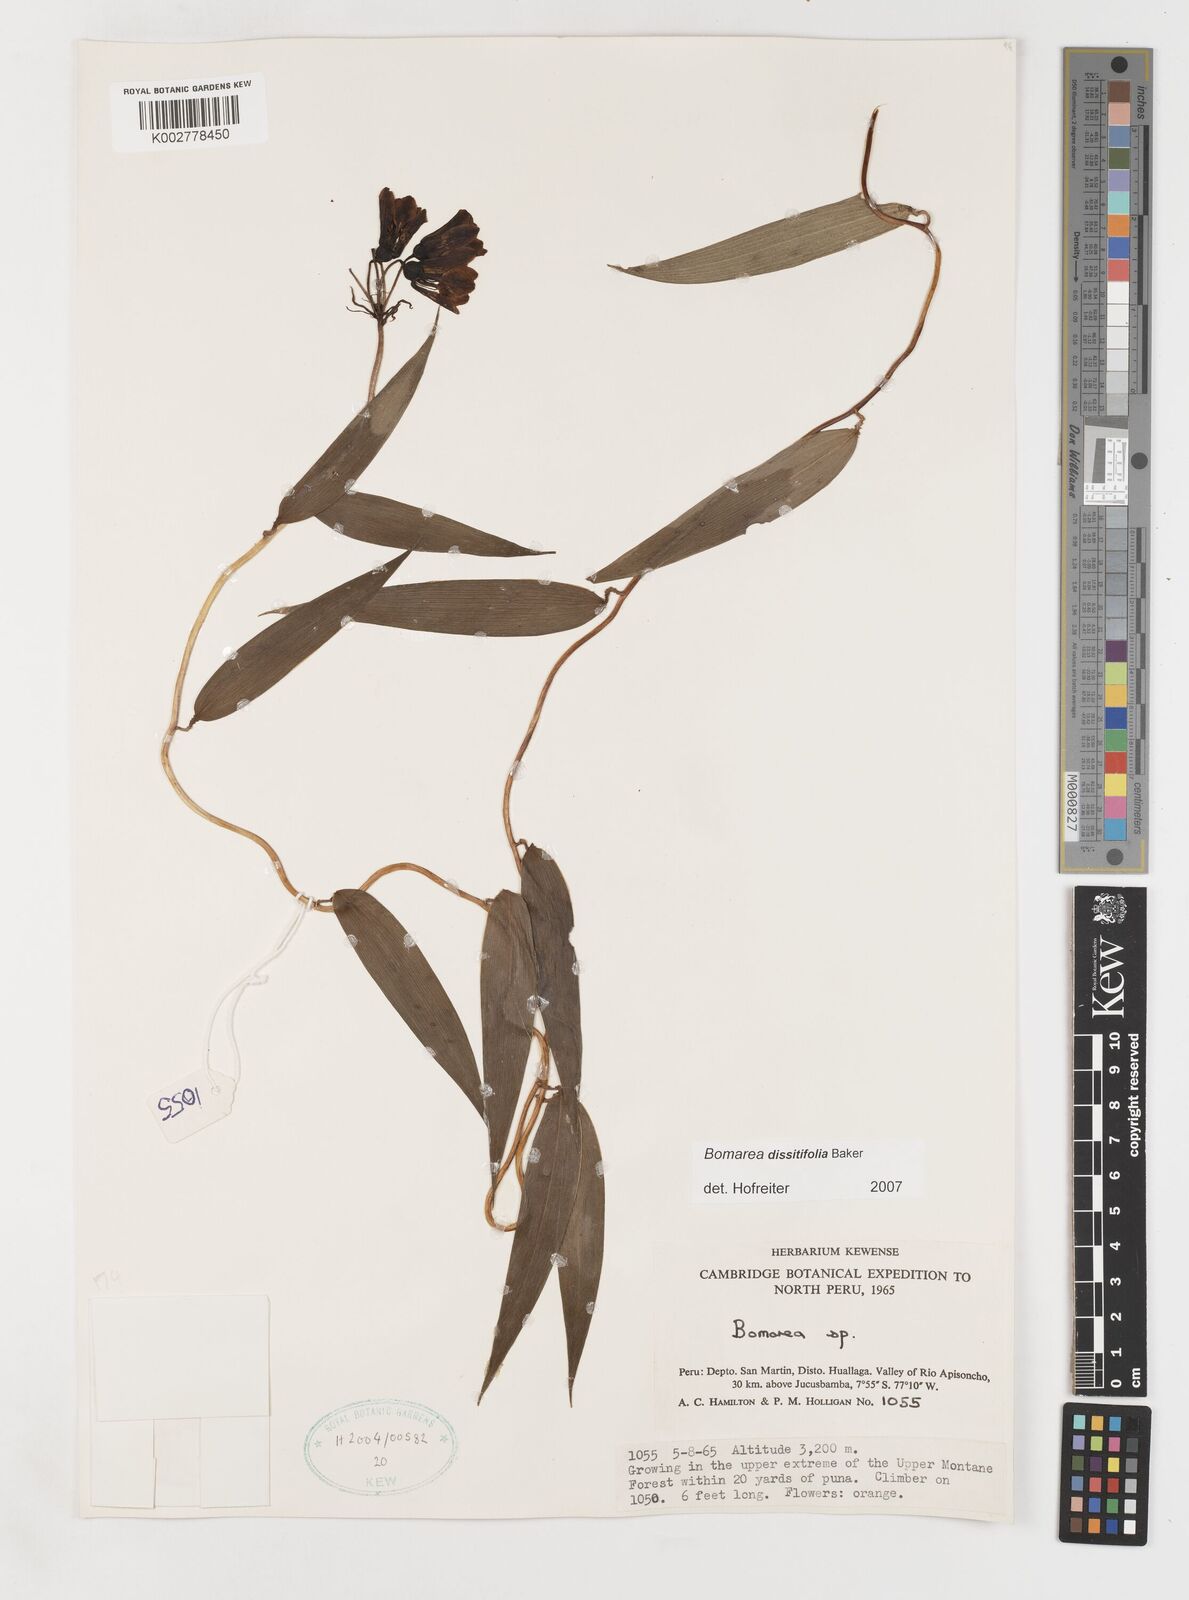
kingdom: Plantae
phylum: Tracheophyta
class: Liliopsida
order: Liliales
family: Alstroemeriaceae
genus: Bomarea
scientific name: Bomarea dissitifolia
